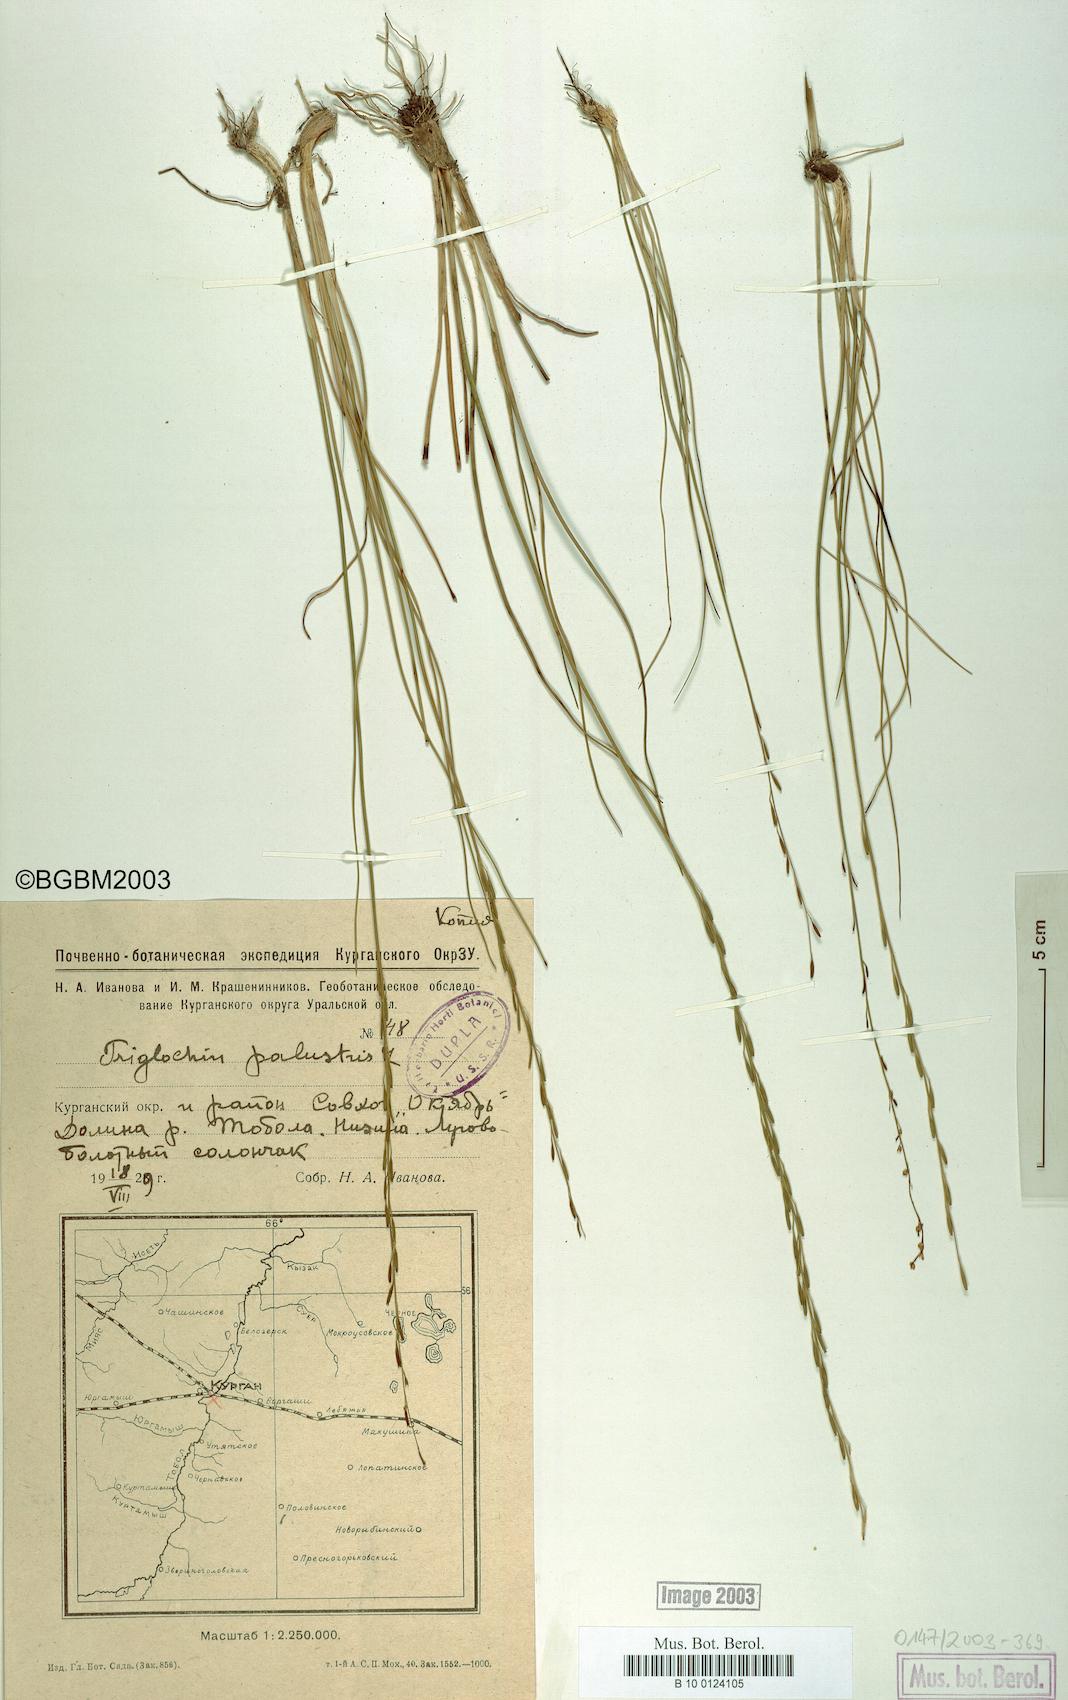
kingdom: Plantae
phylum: Tracheophyta
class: Liliopsida
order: Alismatales
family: Juncaginaceae
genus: Triglochin
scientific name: Triglochin palustris
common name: Marsh arrowgrass
